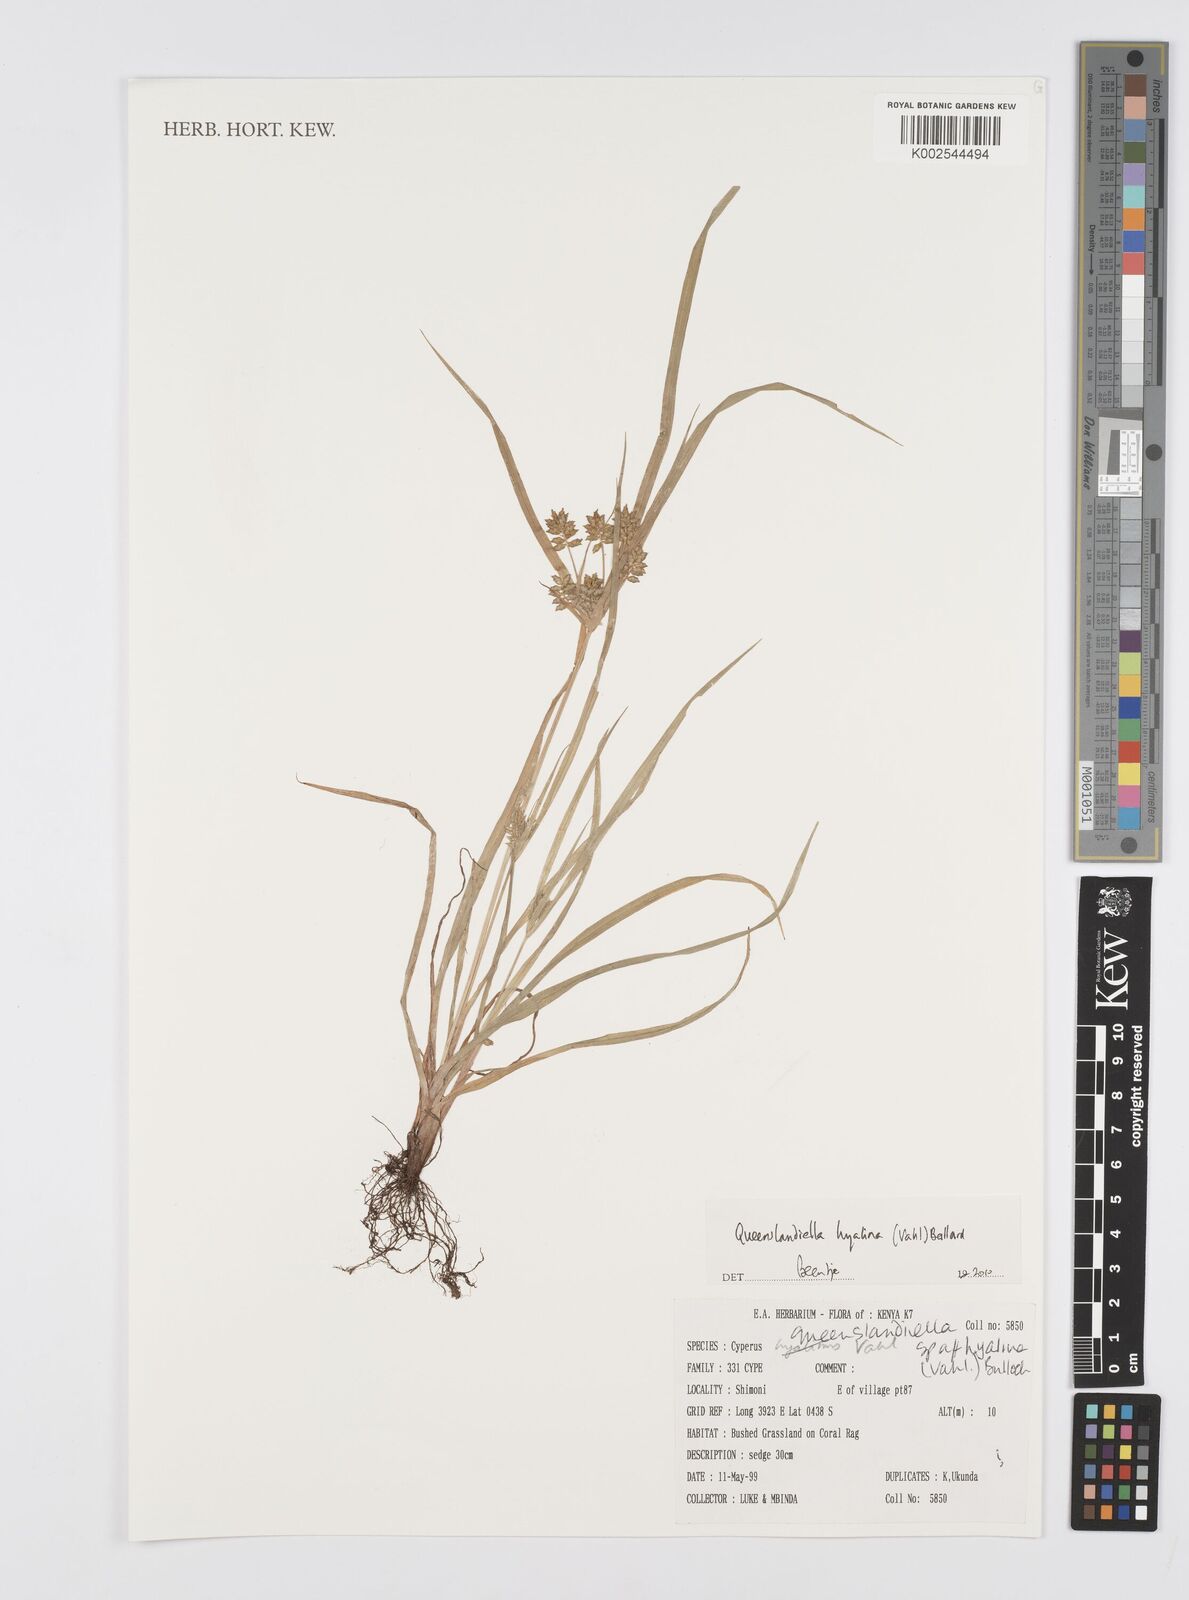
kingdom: Plantae
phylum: Tracheophyta
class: Liliopsida
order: Poales
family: Cyperaceae
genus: Cyperus
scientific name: Cyperus
